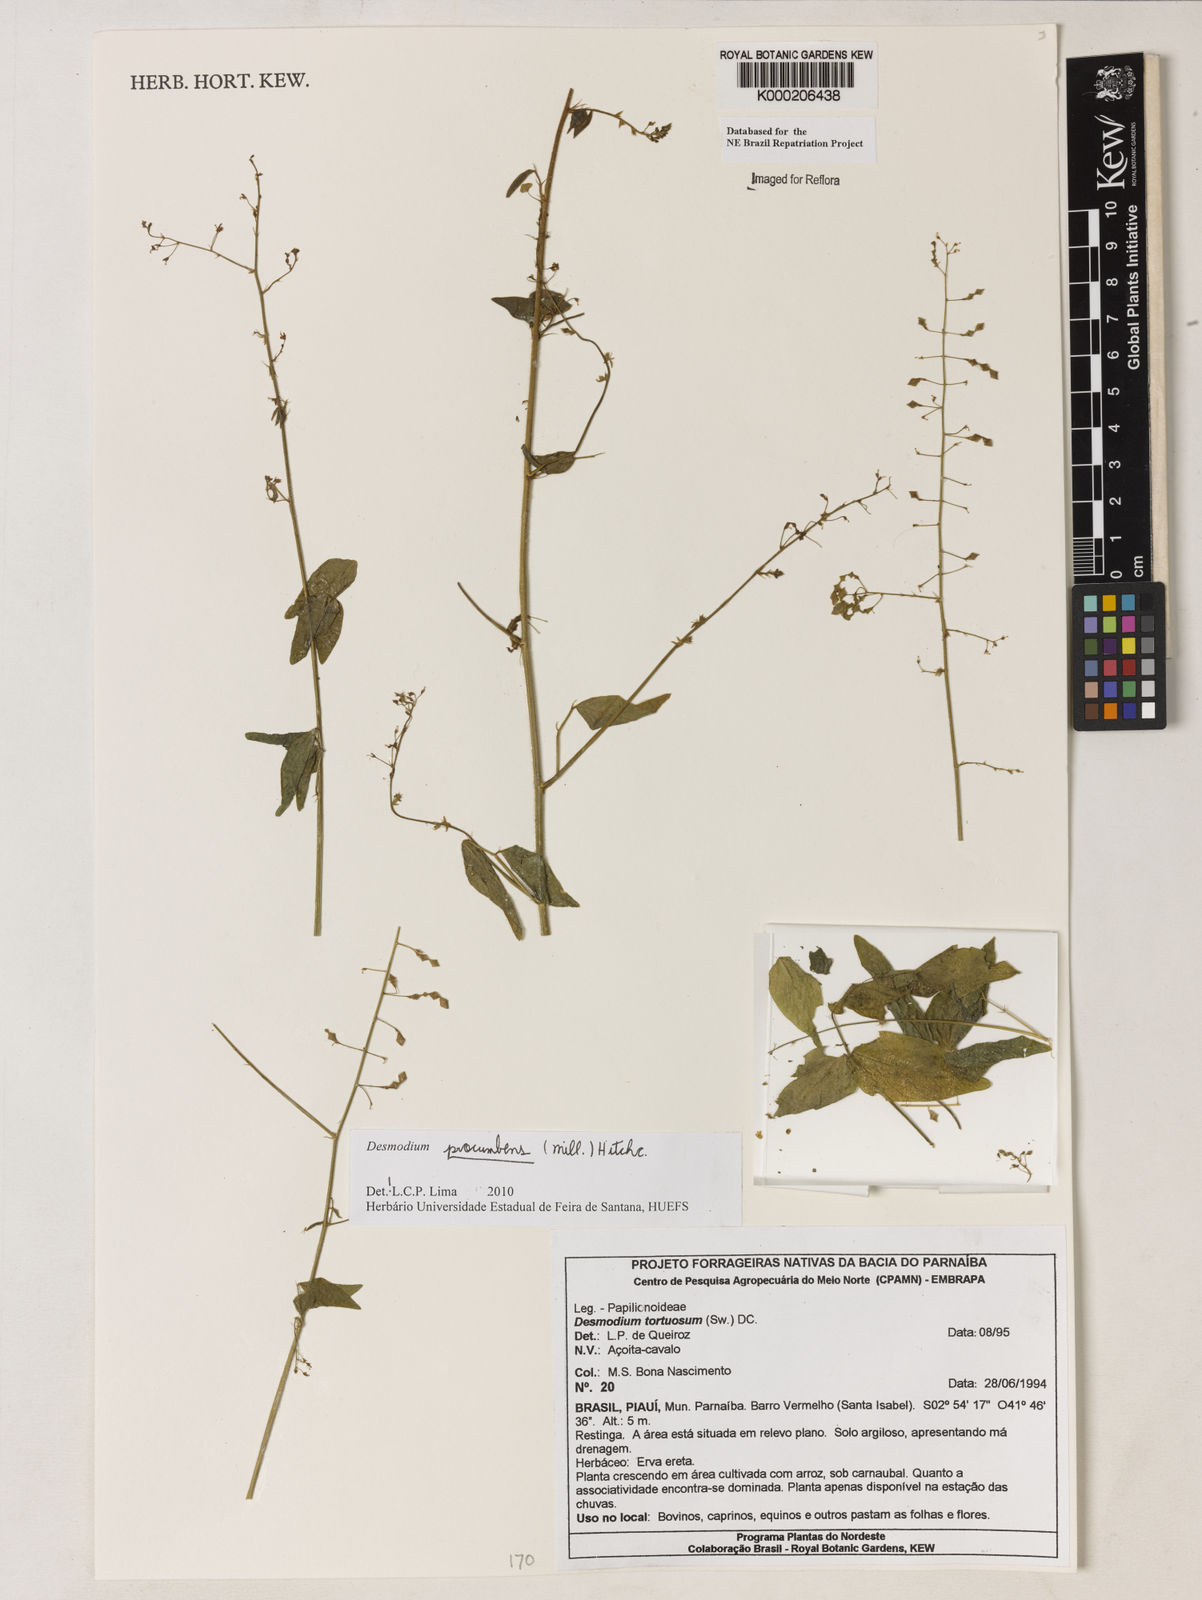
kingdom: Plantae
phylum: Tracheophyta
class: Magnoliopsida
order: Fabales
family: Fabaceae
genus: Desmodium
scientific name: Desmodium tortuosum
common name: Dixie ticktrefoil
